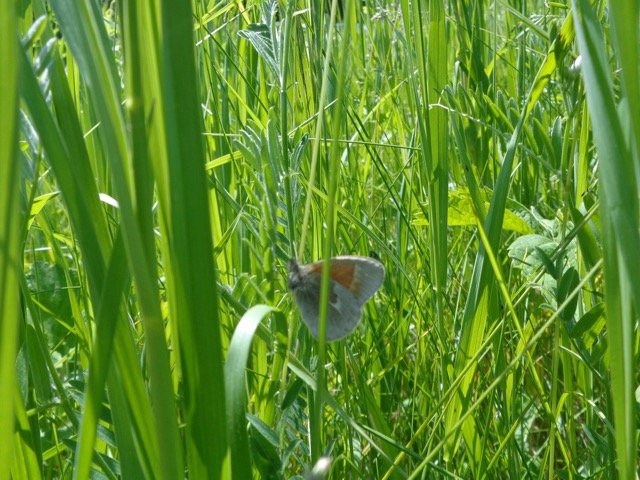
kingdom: Animalia
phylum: Arthropoda
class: Insecta
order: Lepidoptera
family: Nymphalidae
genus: Coenonympha
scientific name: Coenonympha tullia
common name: Large Heath
